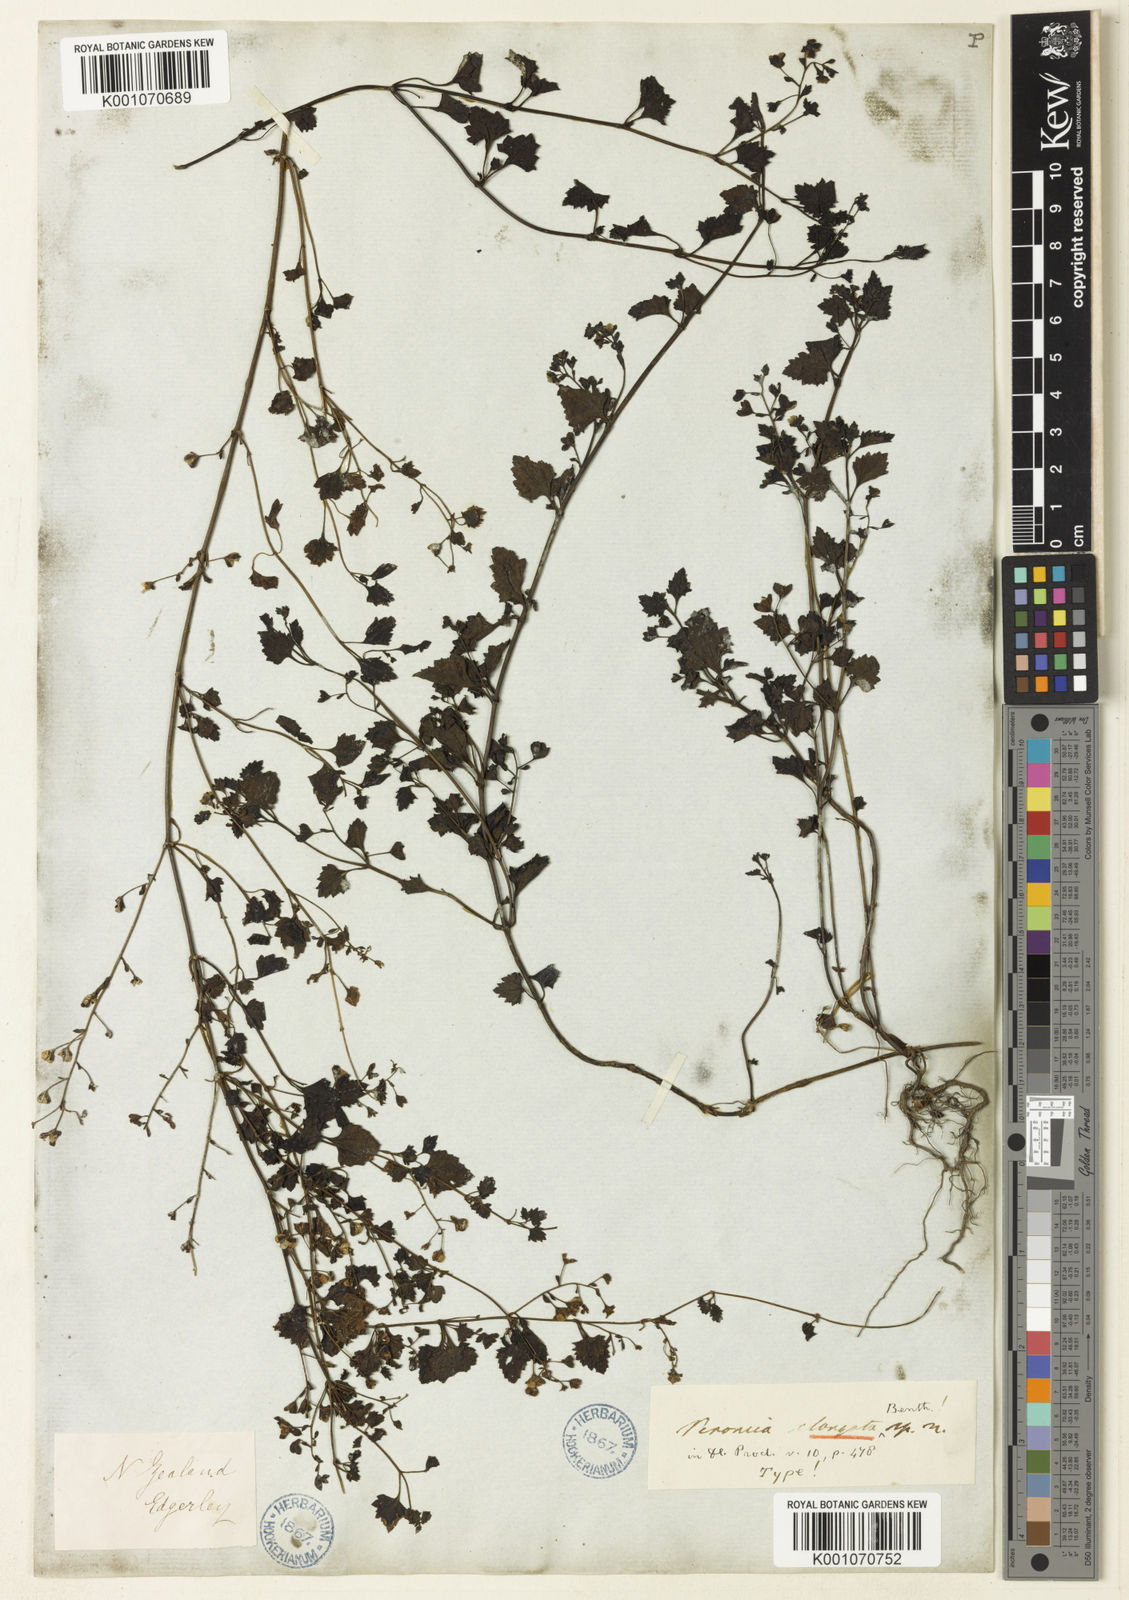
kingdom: Plantae
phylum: Tracheophyta
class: Magnoliopsida
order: Lamiales
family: Plantaginaceae
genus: Veronica
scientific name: Veronica
